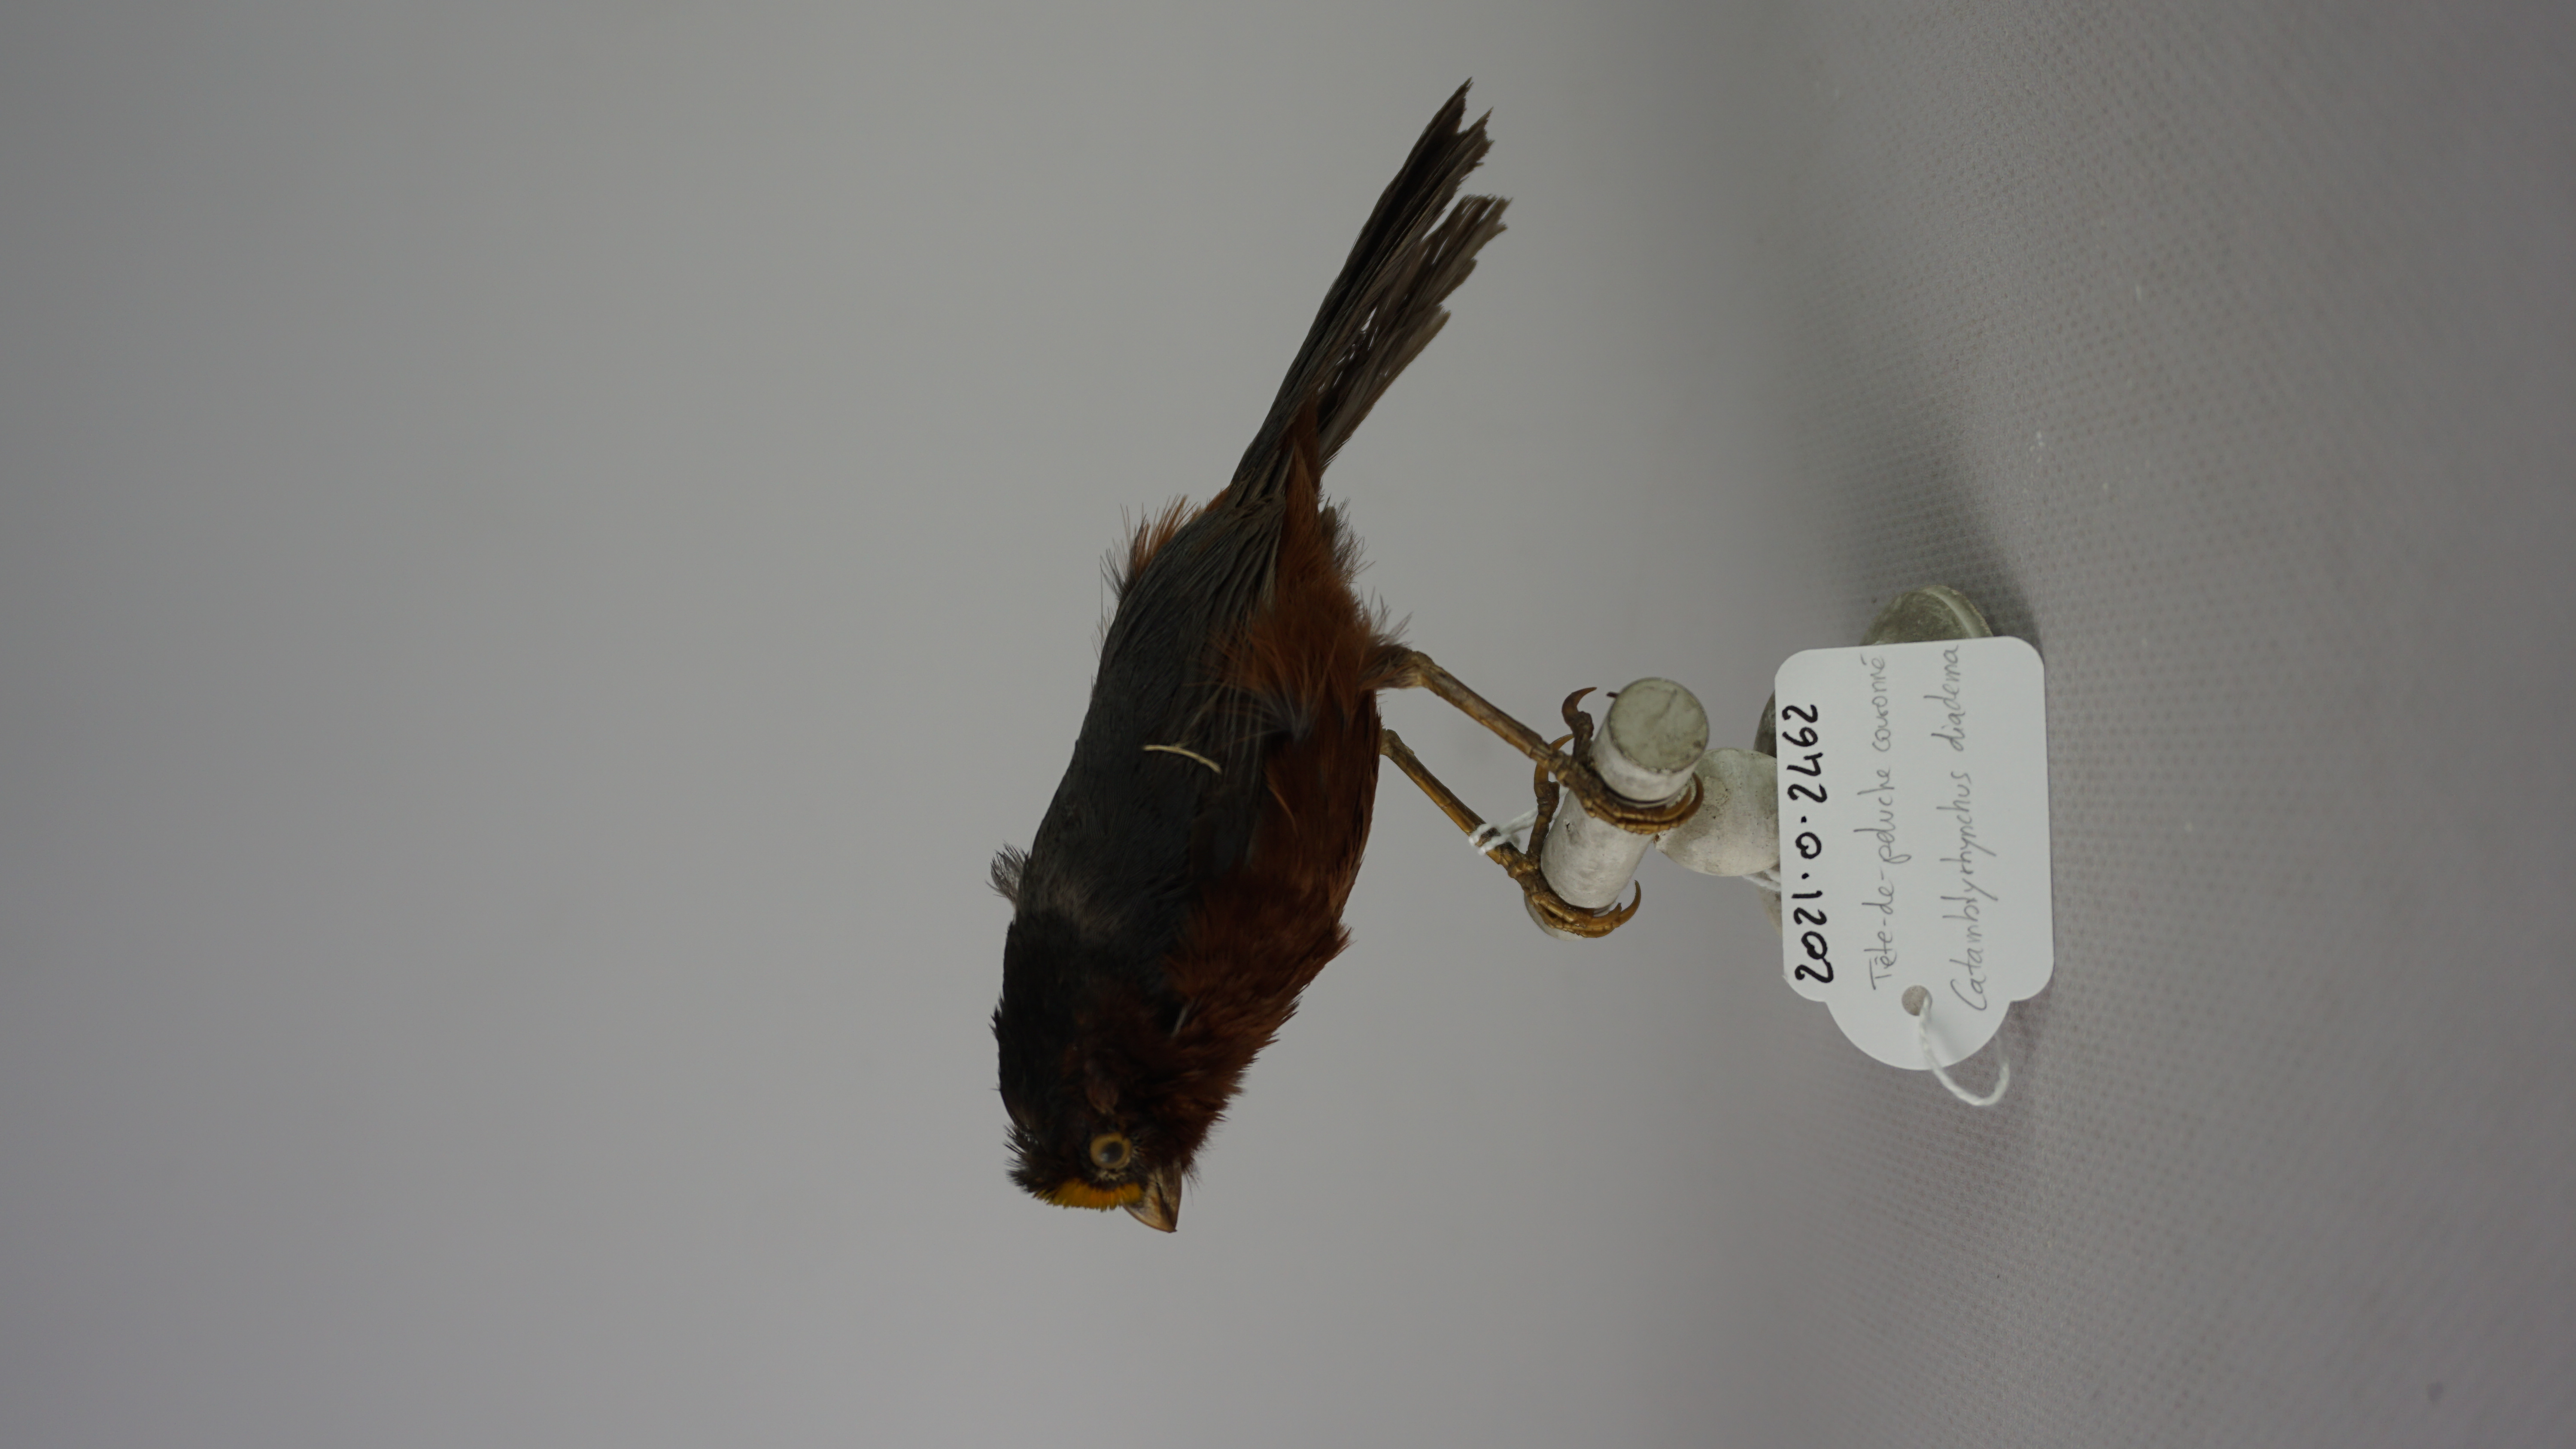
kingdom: Animalia
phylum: Chordata
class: Aves
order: Passeriformes
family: Thraupidae
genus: Catamblyrhynchus
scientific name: Catamblyrhynchus diadema
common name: Plushcap
